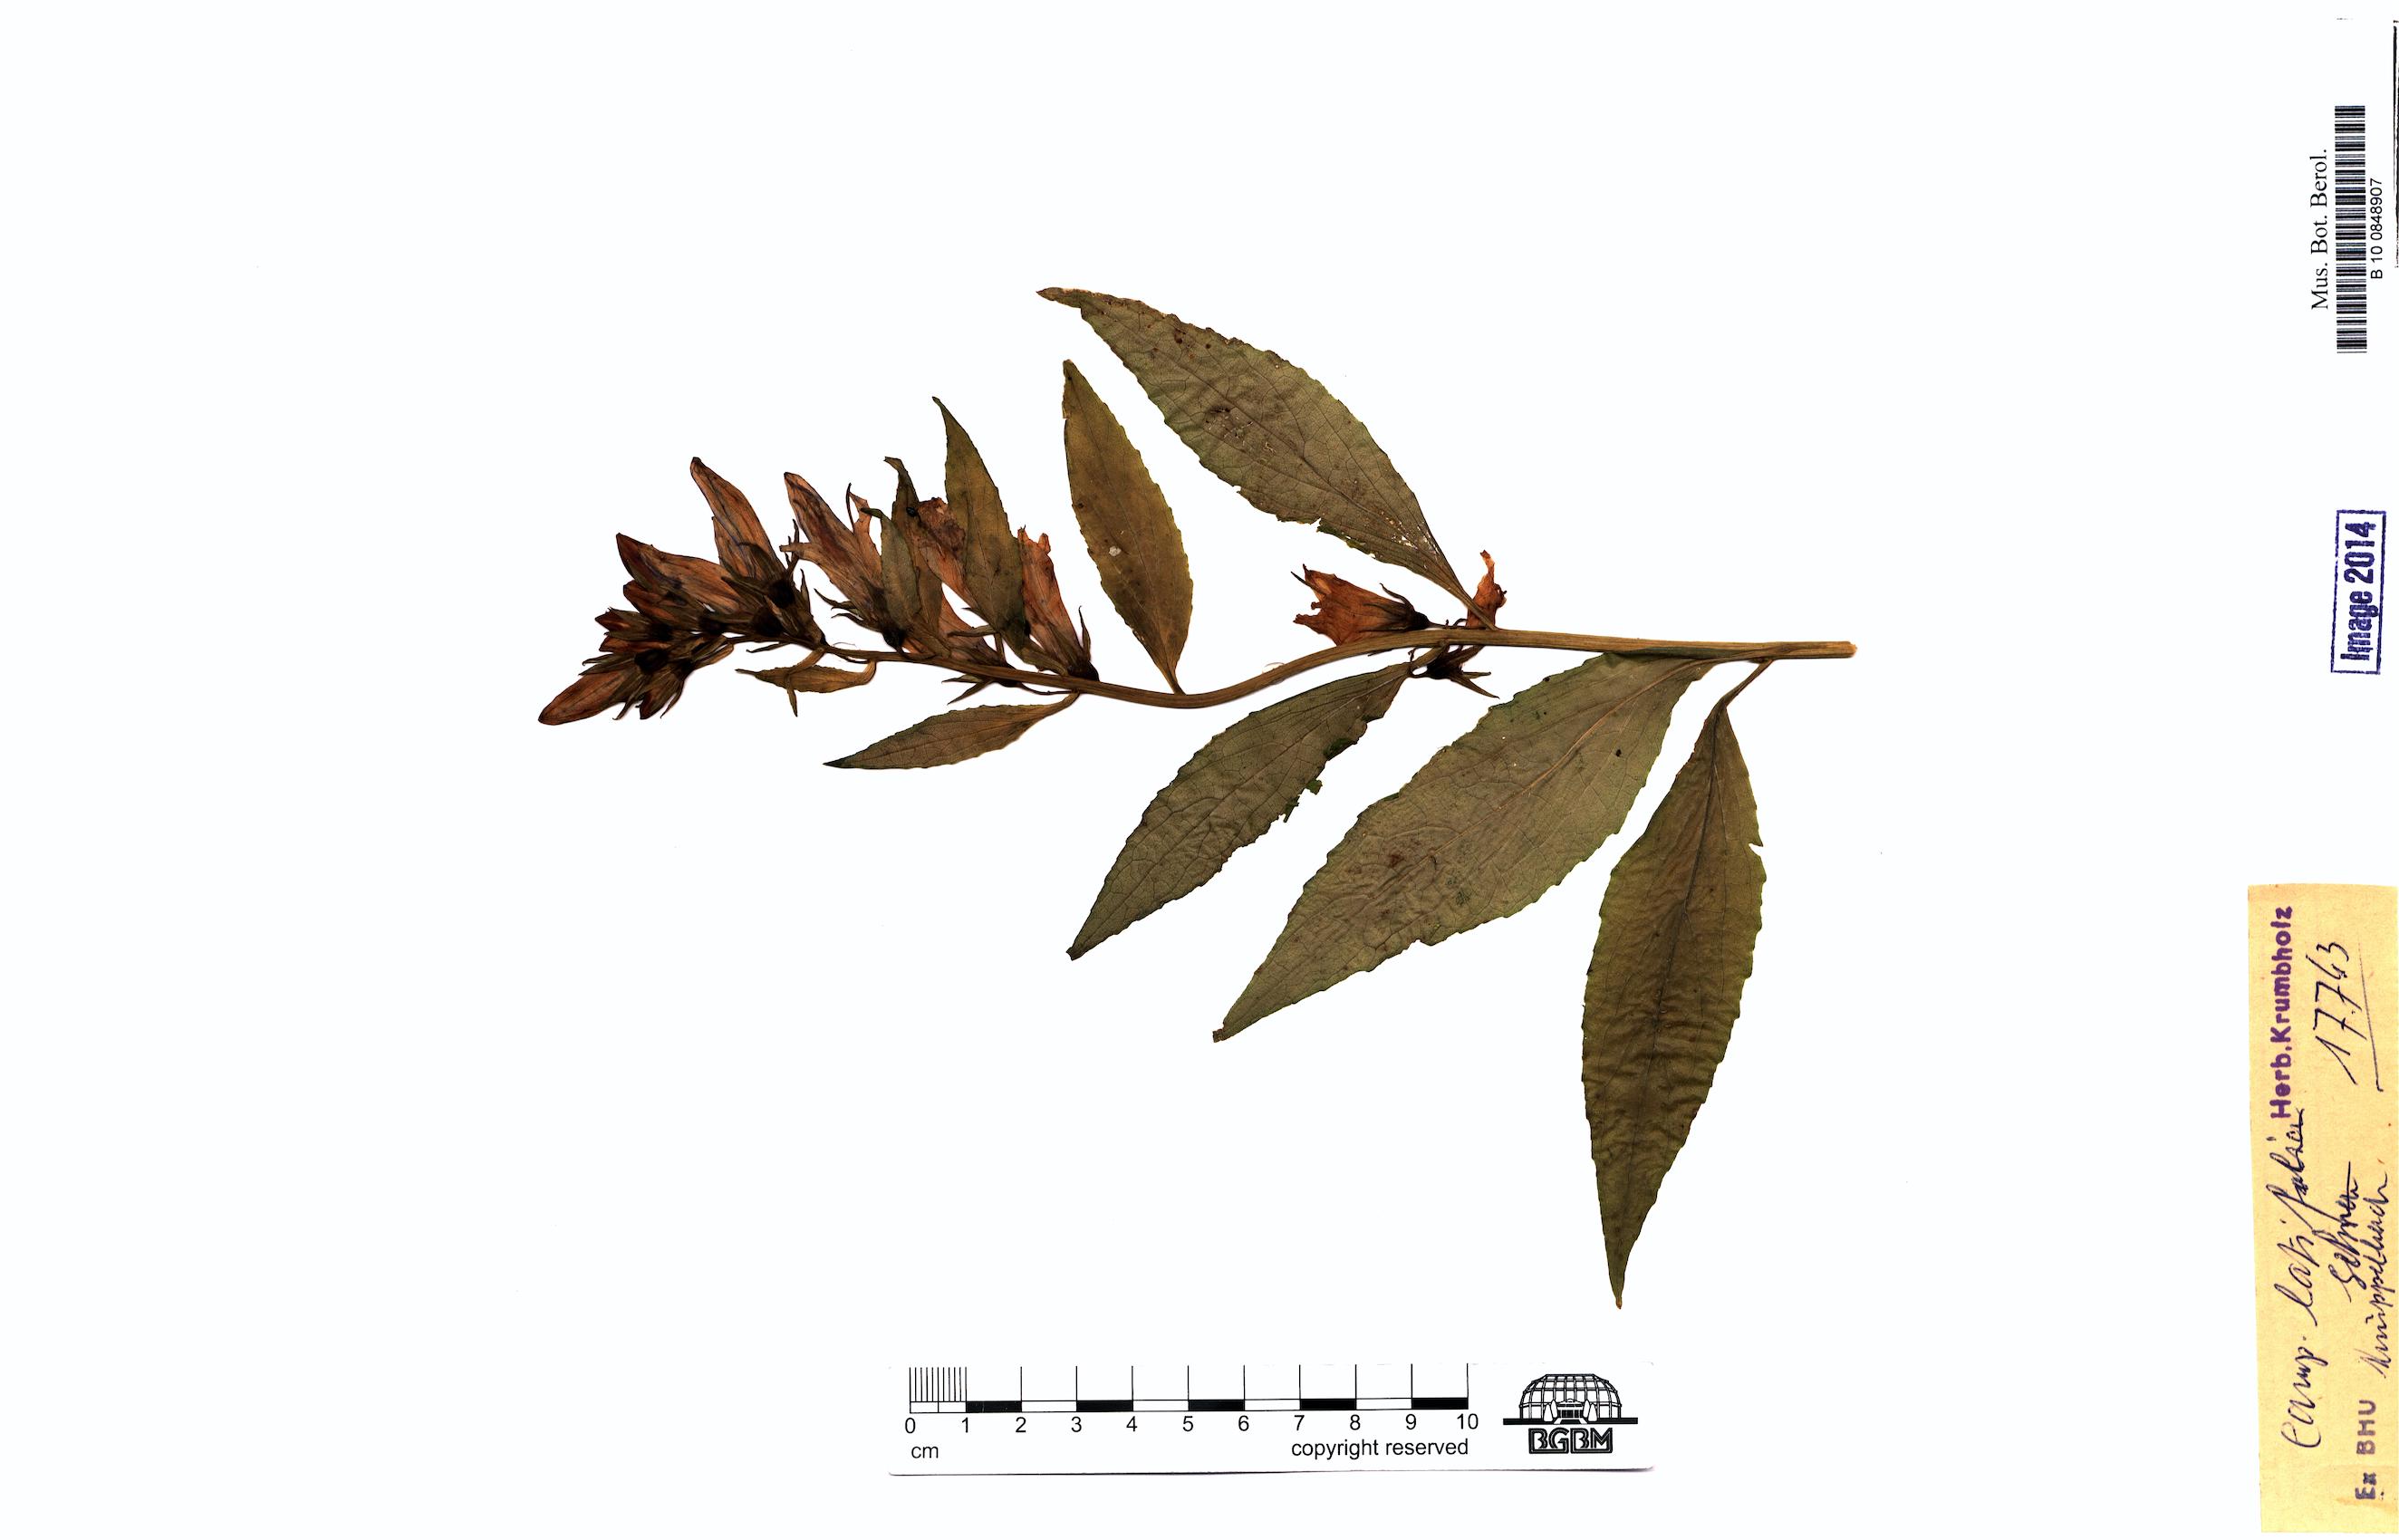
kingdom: Plantae
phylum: Tracheophyta
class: Magnoliopsida
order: Asterales
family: Campanulaceae
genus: Campanula
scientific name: Campanula latifolia
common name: Giant bellflower
